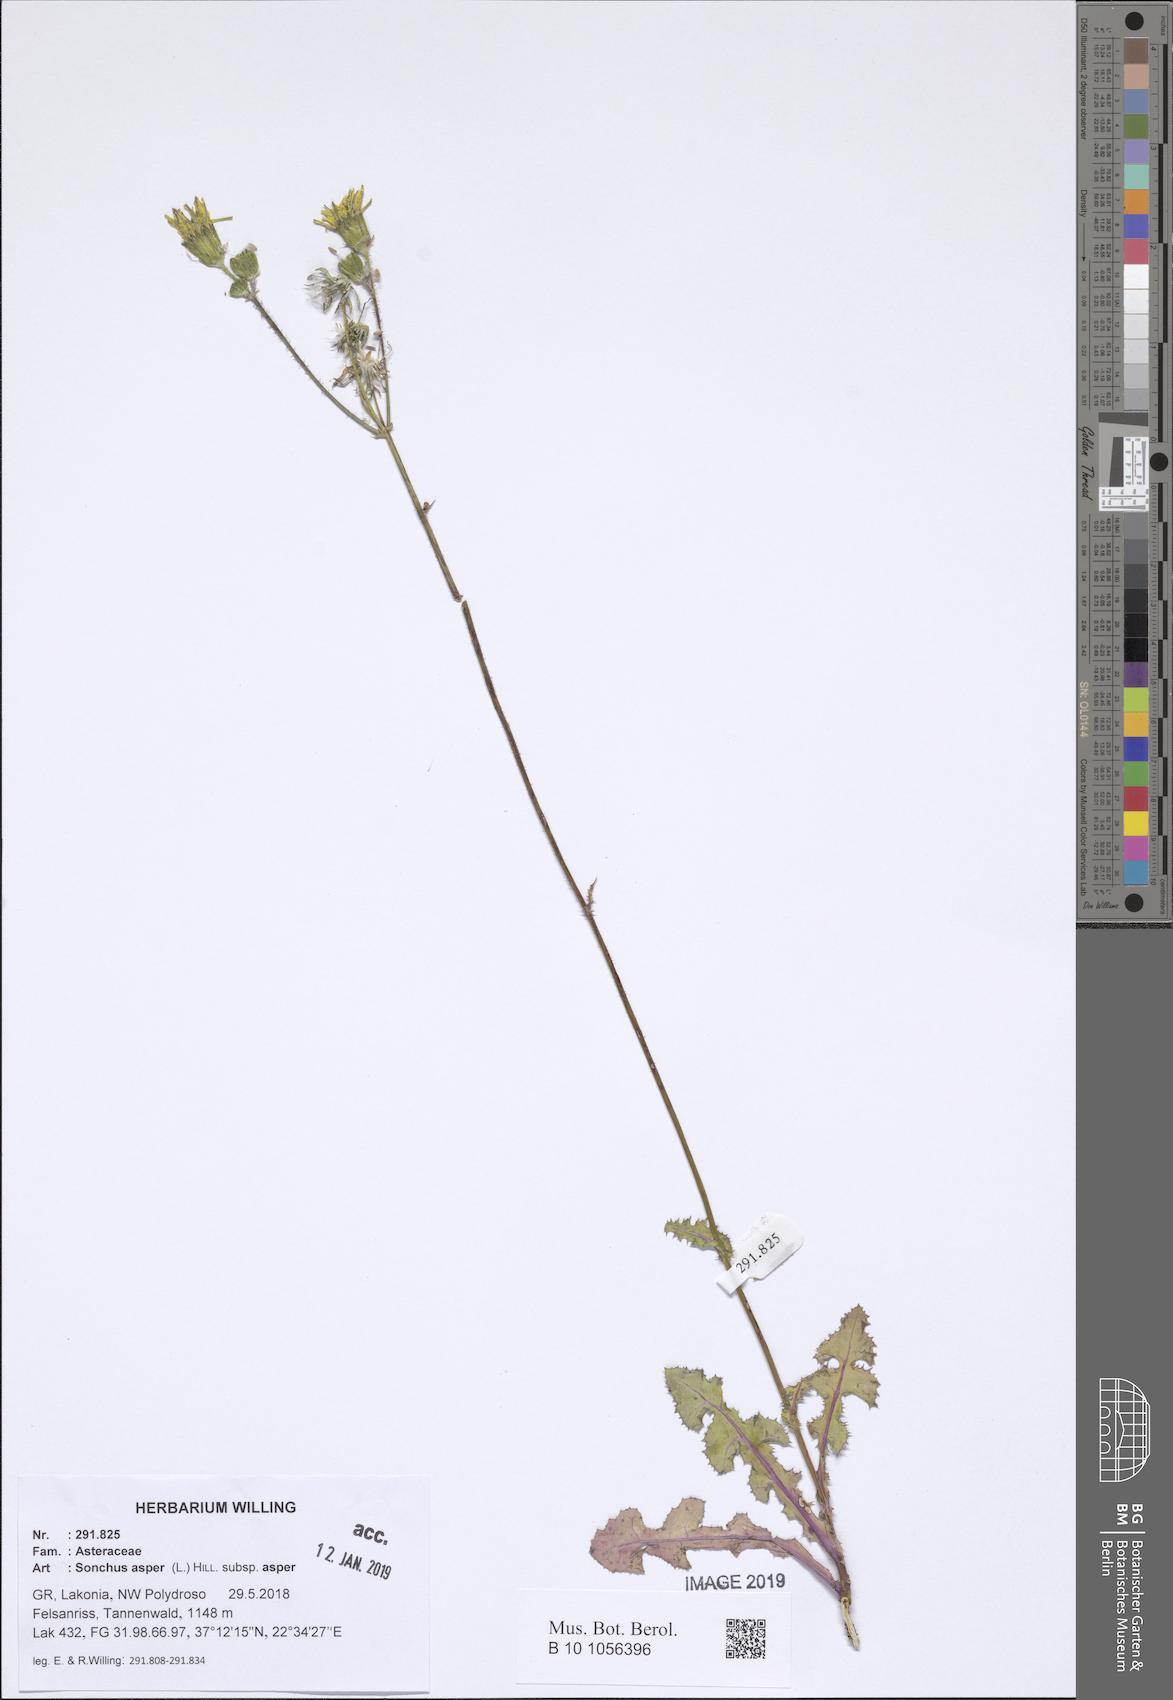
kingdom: Plantae
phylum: Tracheophyta
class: Magnoliopsida
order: Asterales
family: Asteraceae
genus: Sonchus
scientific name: Sonchus asper
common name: Prickly sow-thistle
